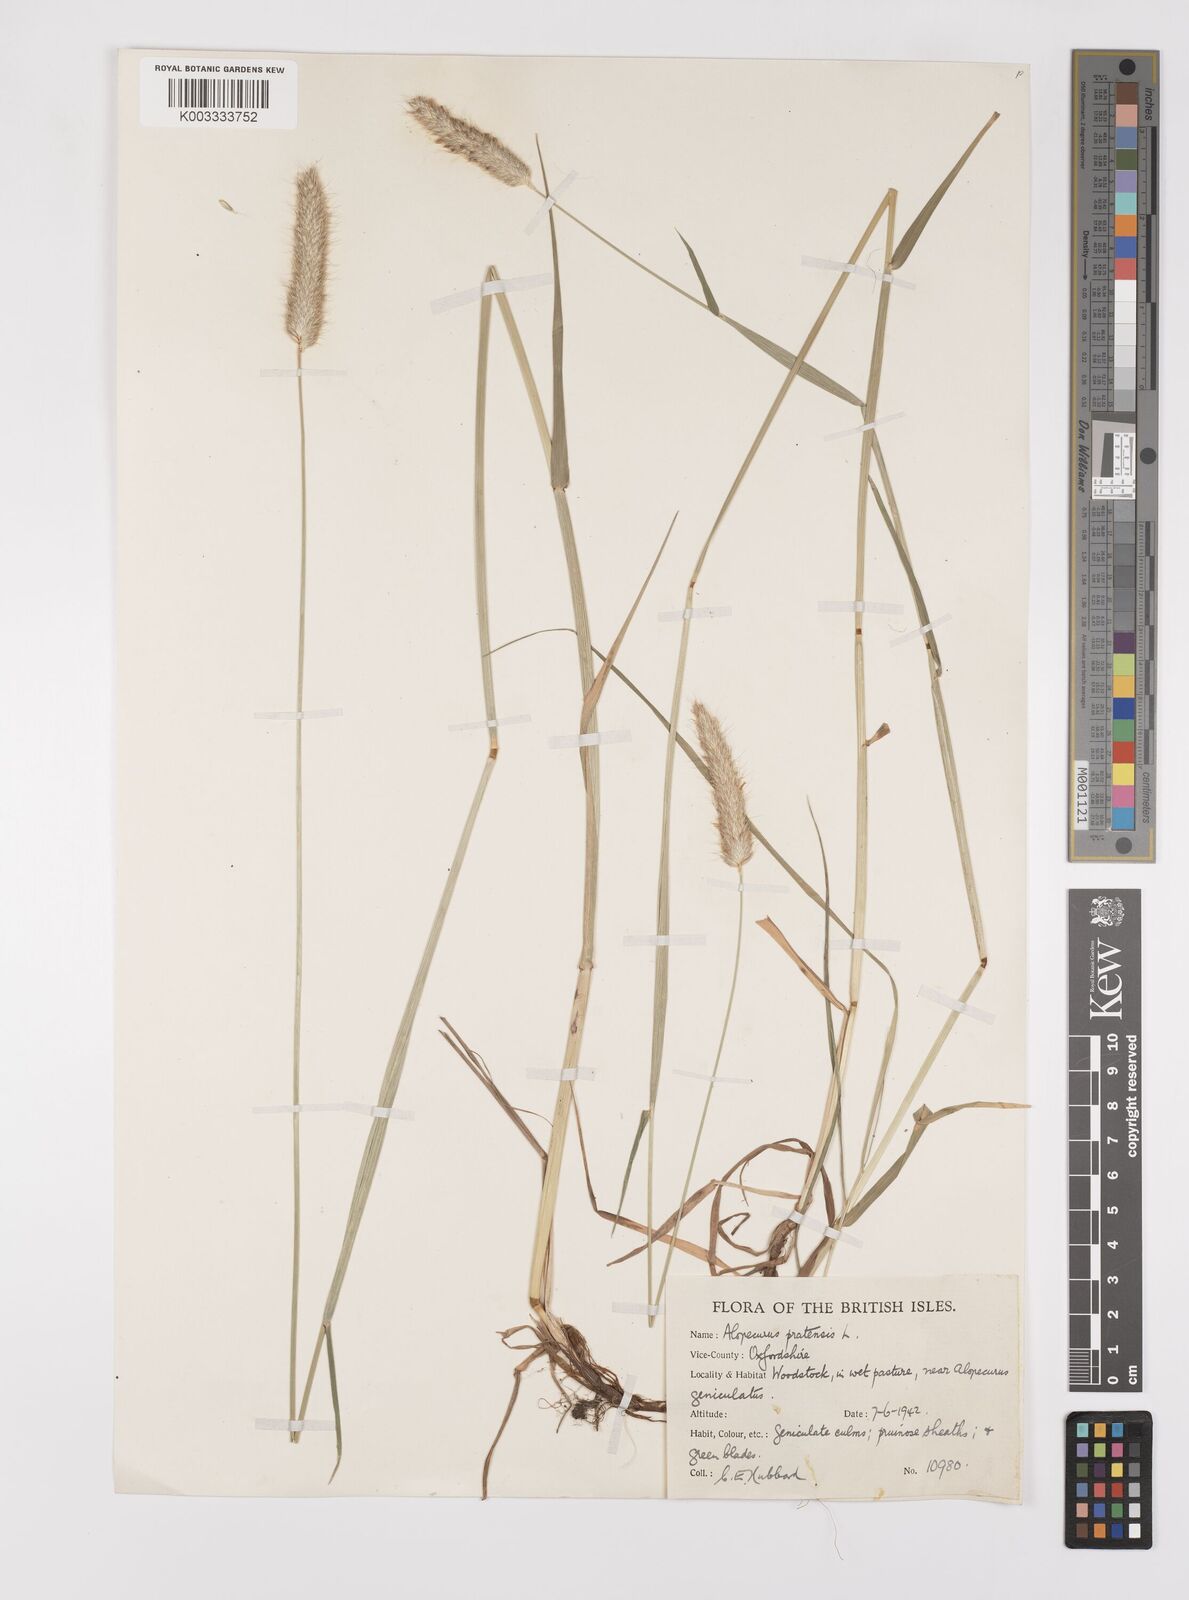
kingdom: Plantae
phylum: Tracheophyta
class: Liliopsida
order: Poales
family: Poaceae
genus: Alopecurus
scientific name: Alopecurus pratensis
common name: Meadow foxtail
